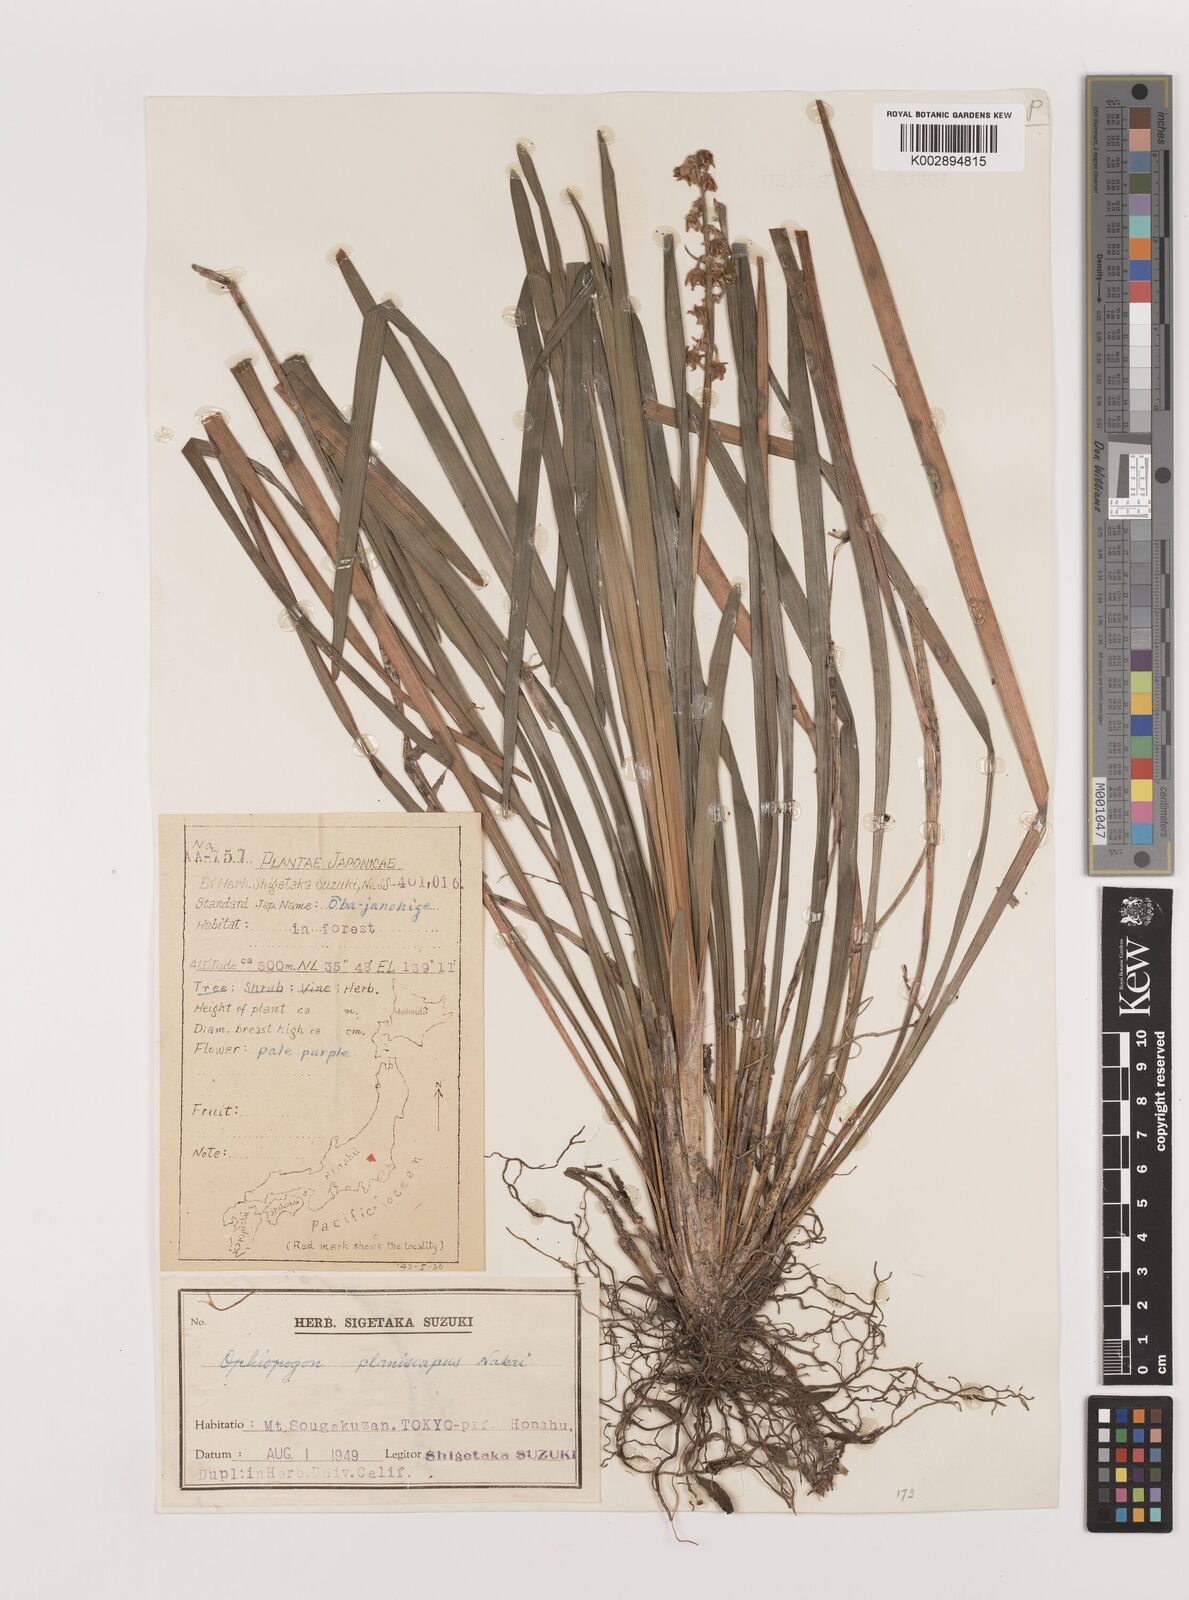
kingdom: Plantae
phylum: Tracheophyta
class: Liliopsida
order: Asparagales
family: Asparagaceae
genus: Ophiopogon
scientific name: Ophiopogon planiscapus
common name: Black mondo
